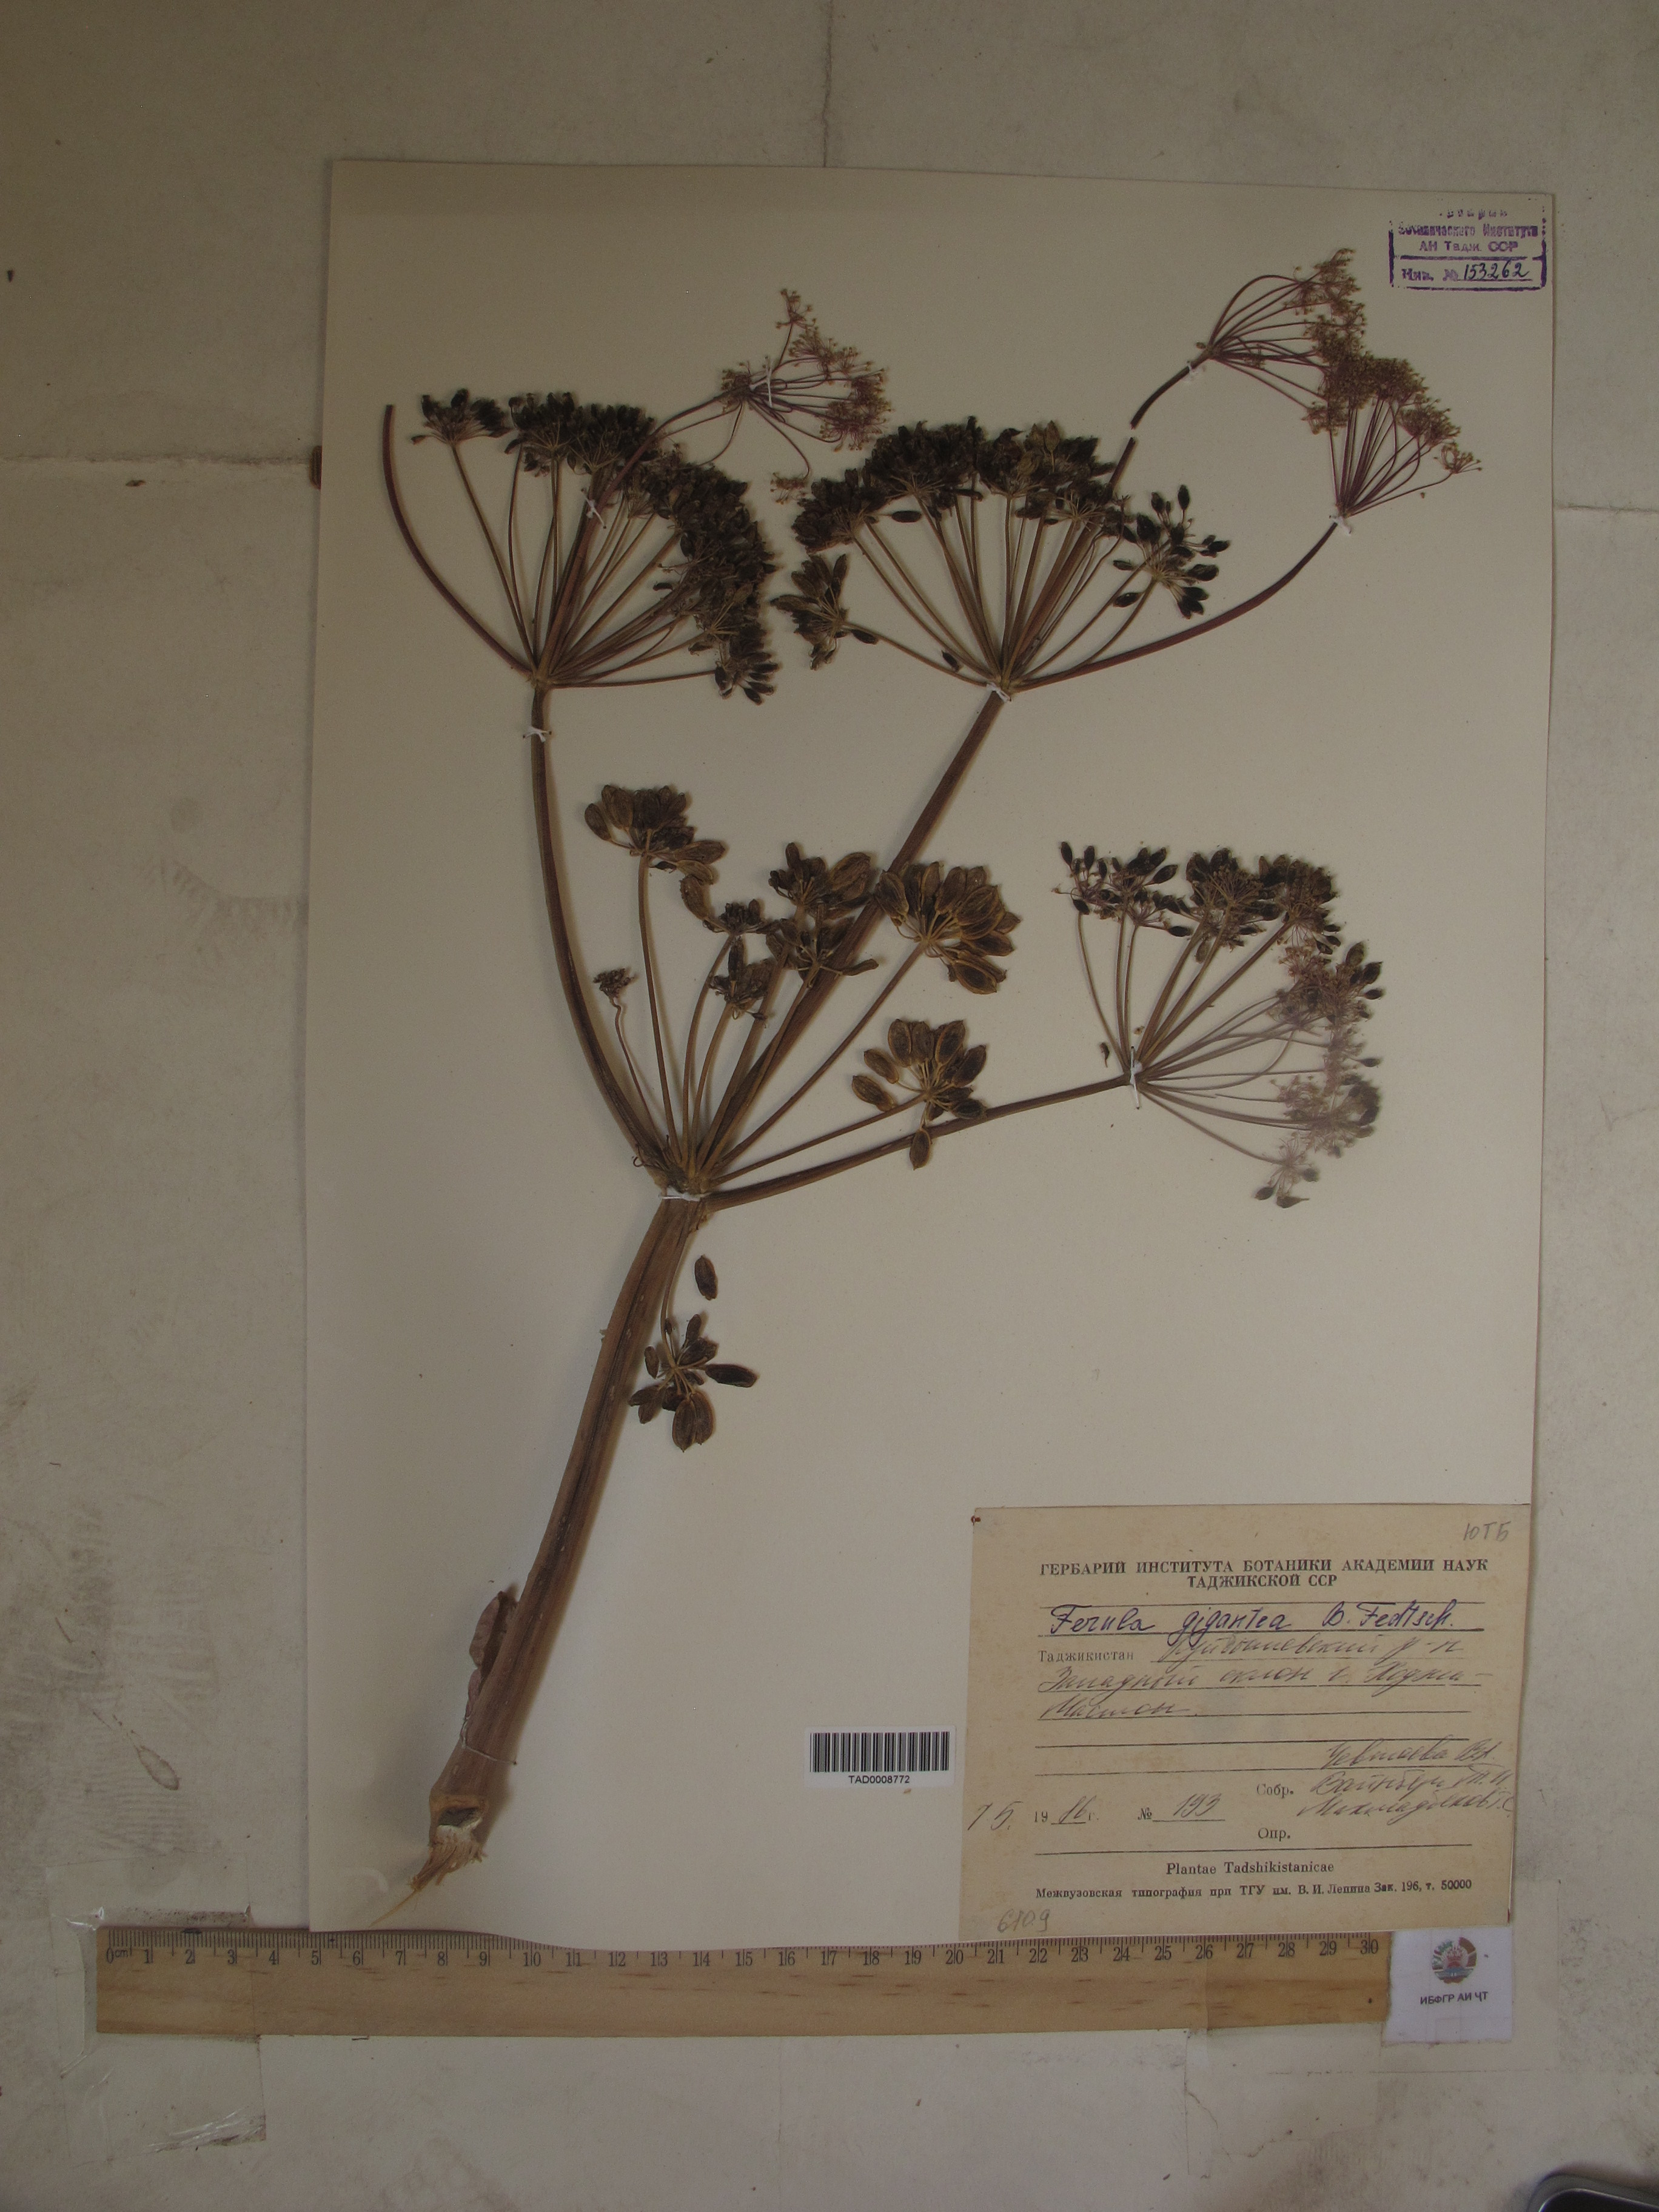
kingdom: Plantae
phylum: Tracheophyta
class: Magnoliopsida
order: Apiales
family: Apiaceae
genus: Ferula
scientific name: Ferula gigantea
